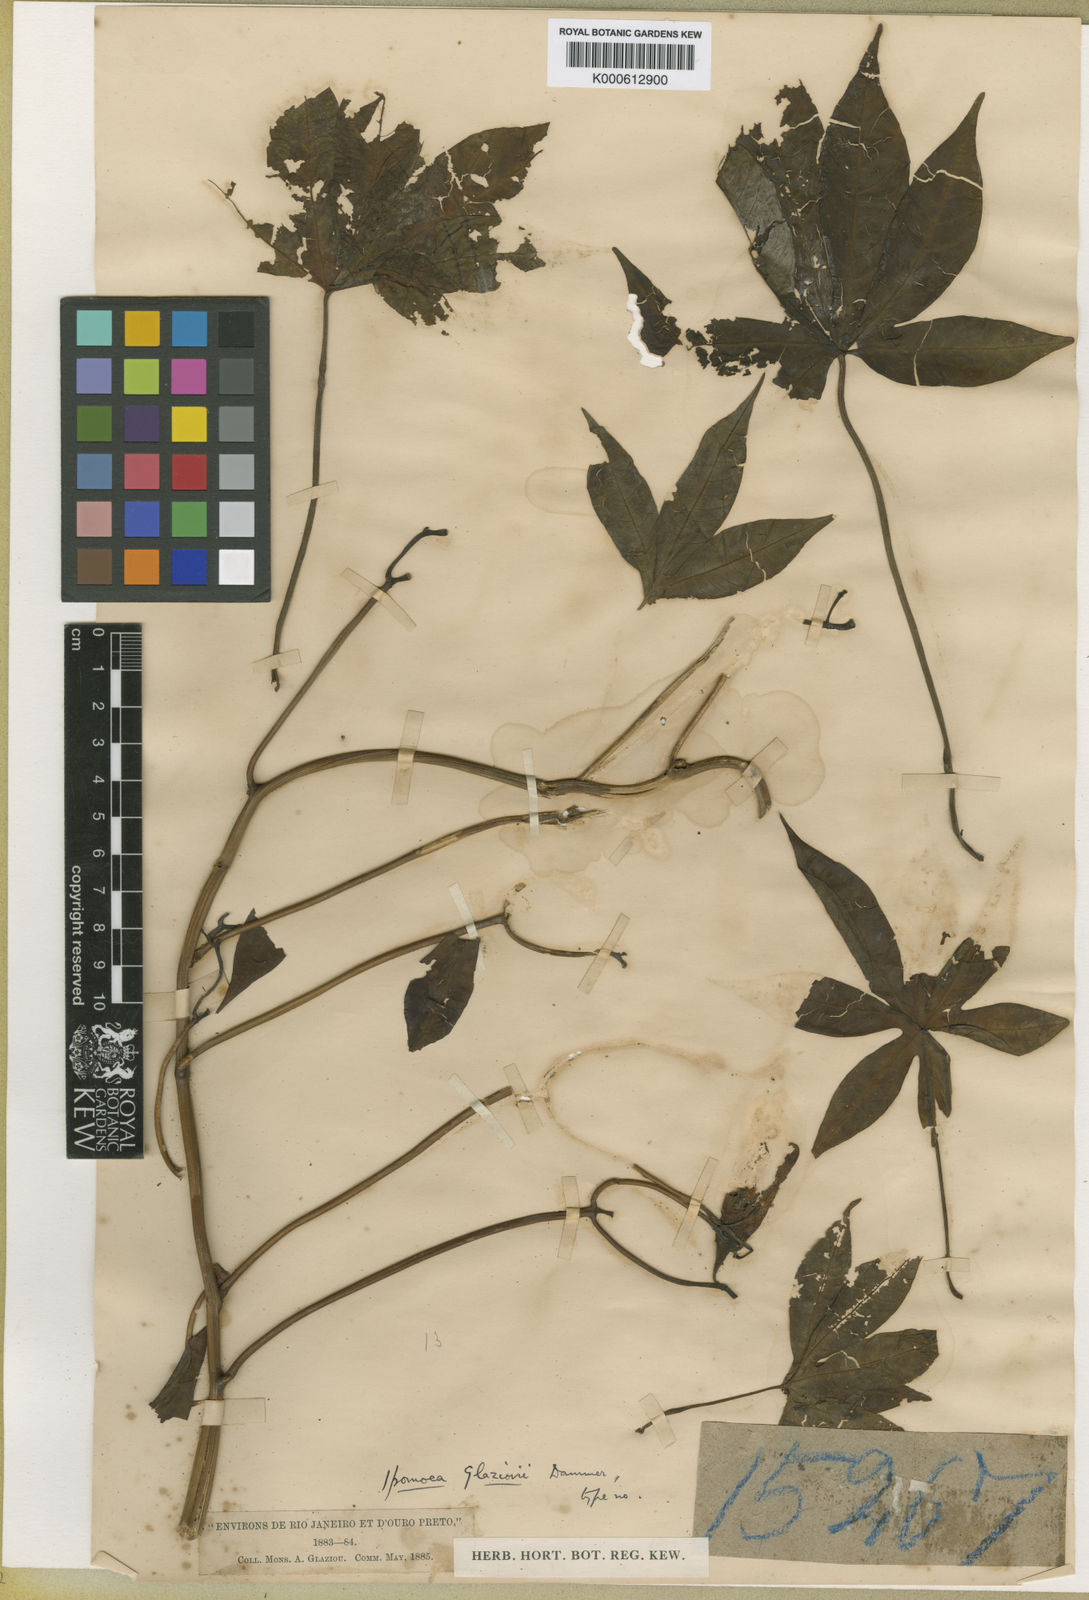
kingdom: Plantae
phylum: Tracheophyta
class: Magnoliopsida
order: Solanales
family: Convolvulaceae
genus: Distimake
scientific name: Distimake tuberosus
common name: Spanish arborvine
